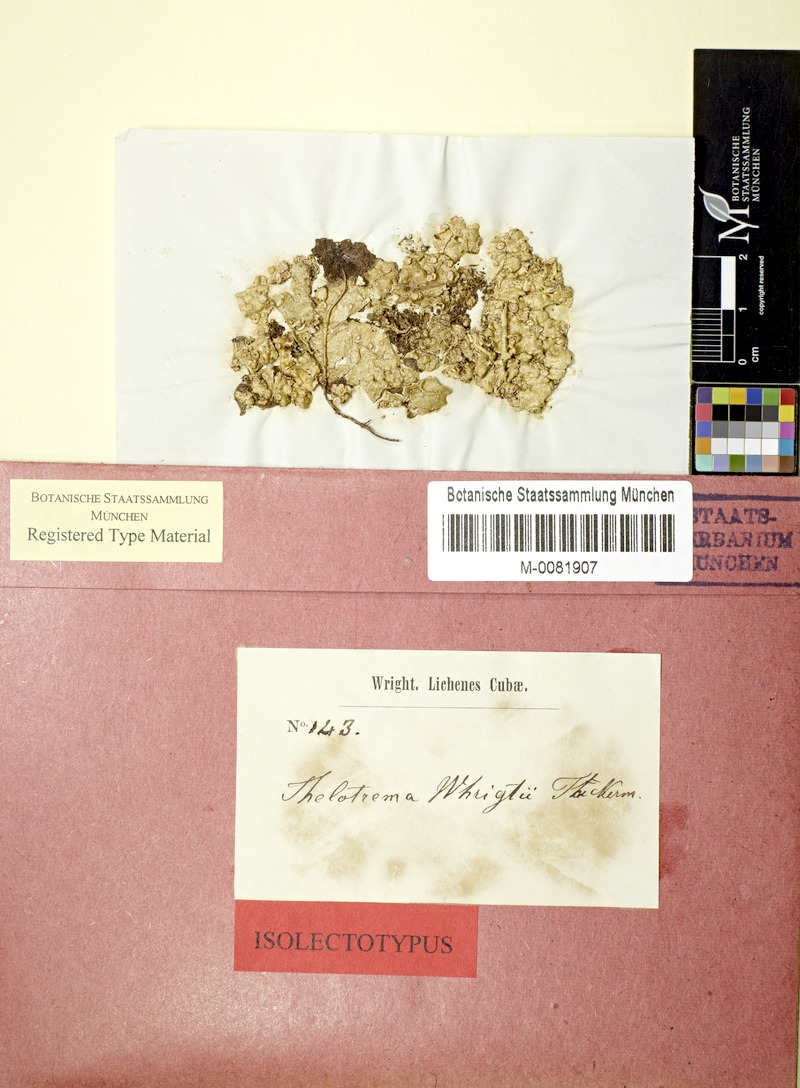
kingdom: Fungi
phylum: Ascomycota
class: Lecanoromycetes
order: Ostropales
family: Graphidaceae
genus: Stegobolus
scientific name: Stegobolus wrightii
